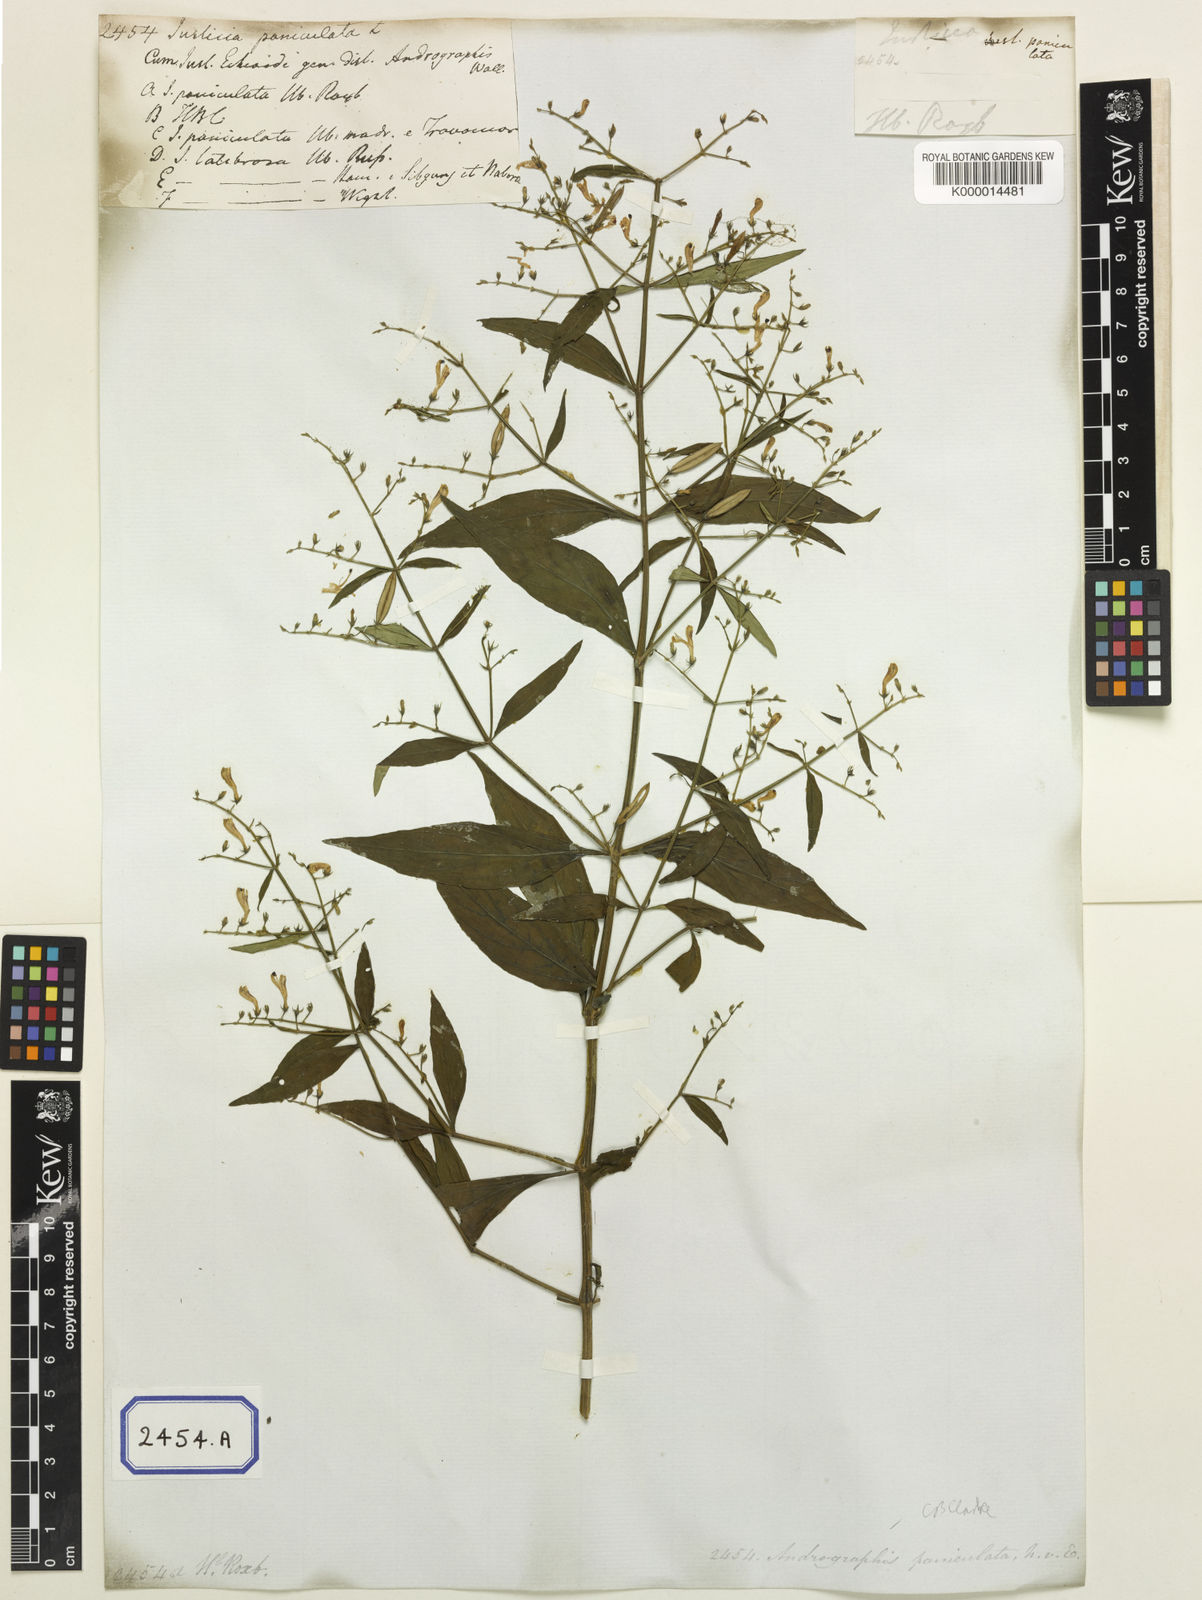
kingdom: Plantae
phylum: Tracheophyta
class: Magnoliopsida
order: Lamiales
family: Acanthaceae
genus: Justicia
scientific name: Justicia
